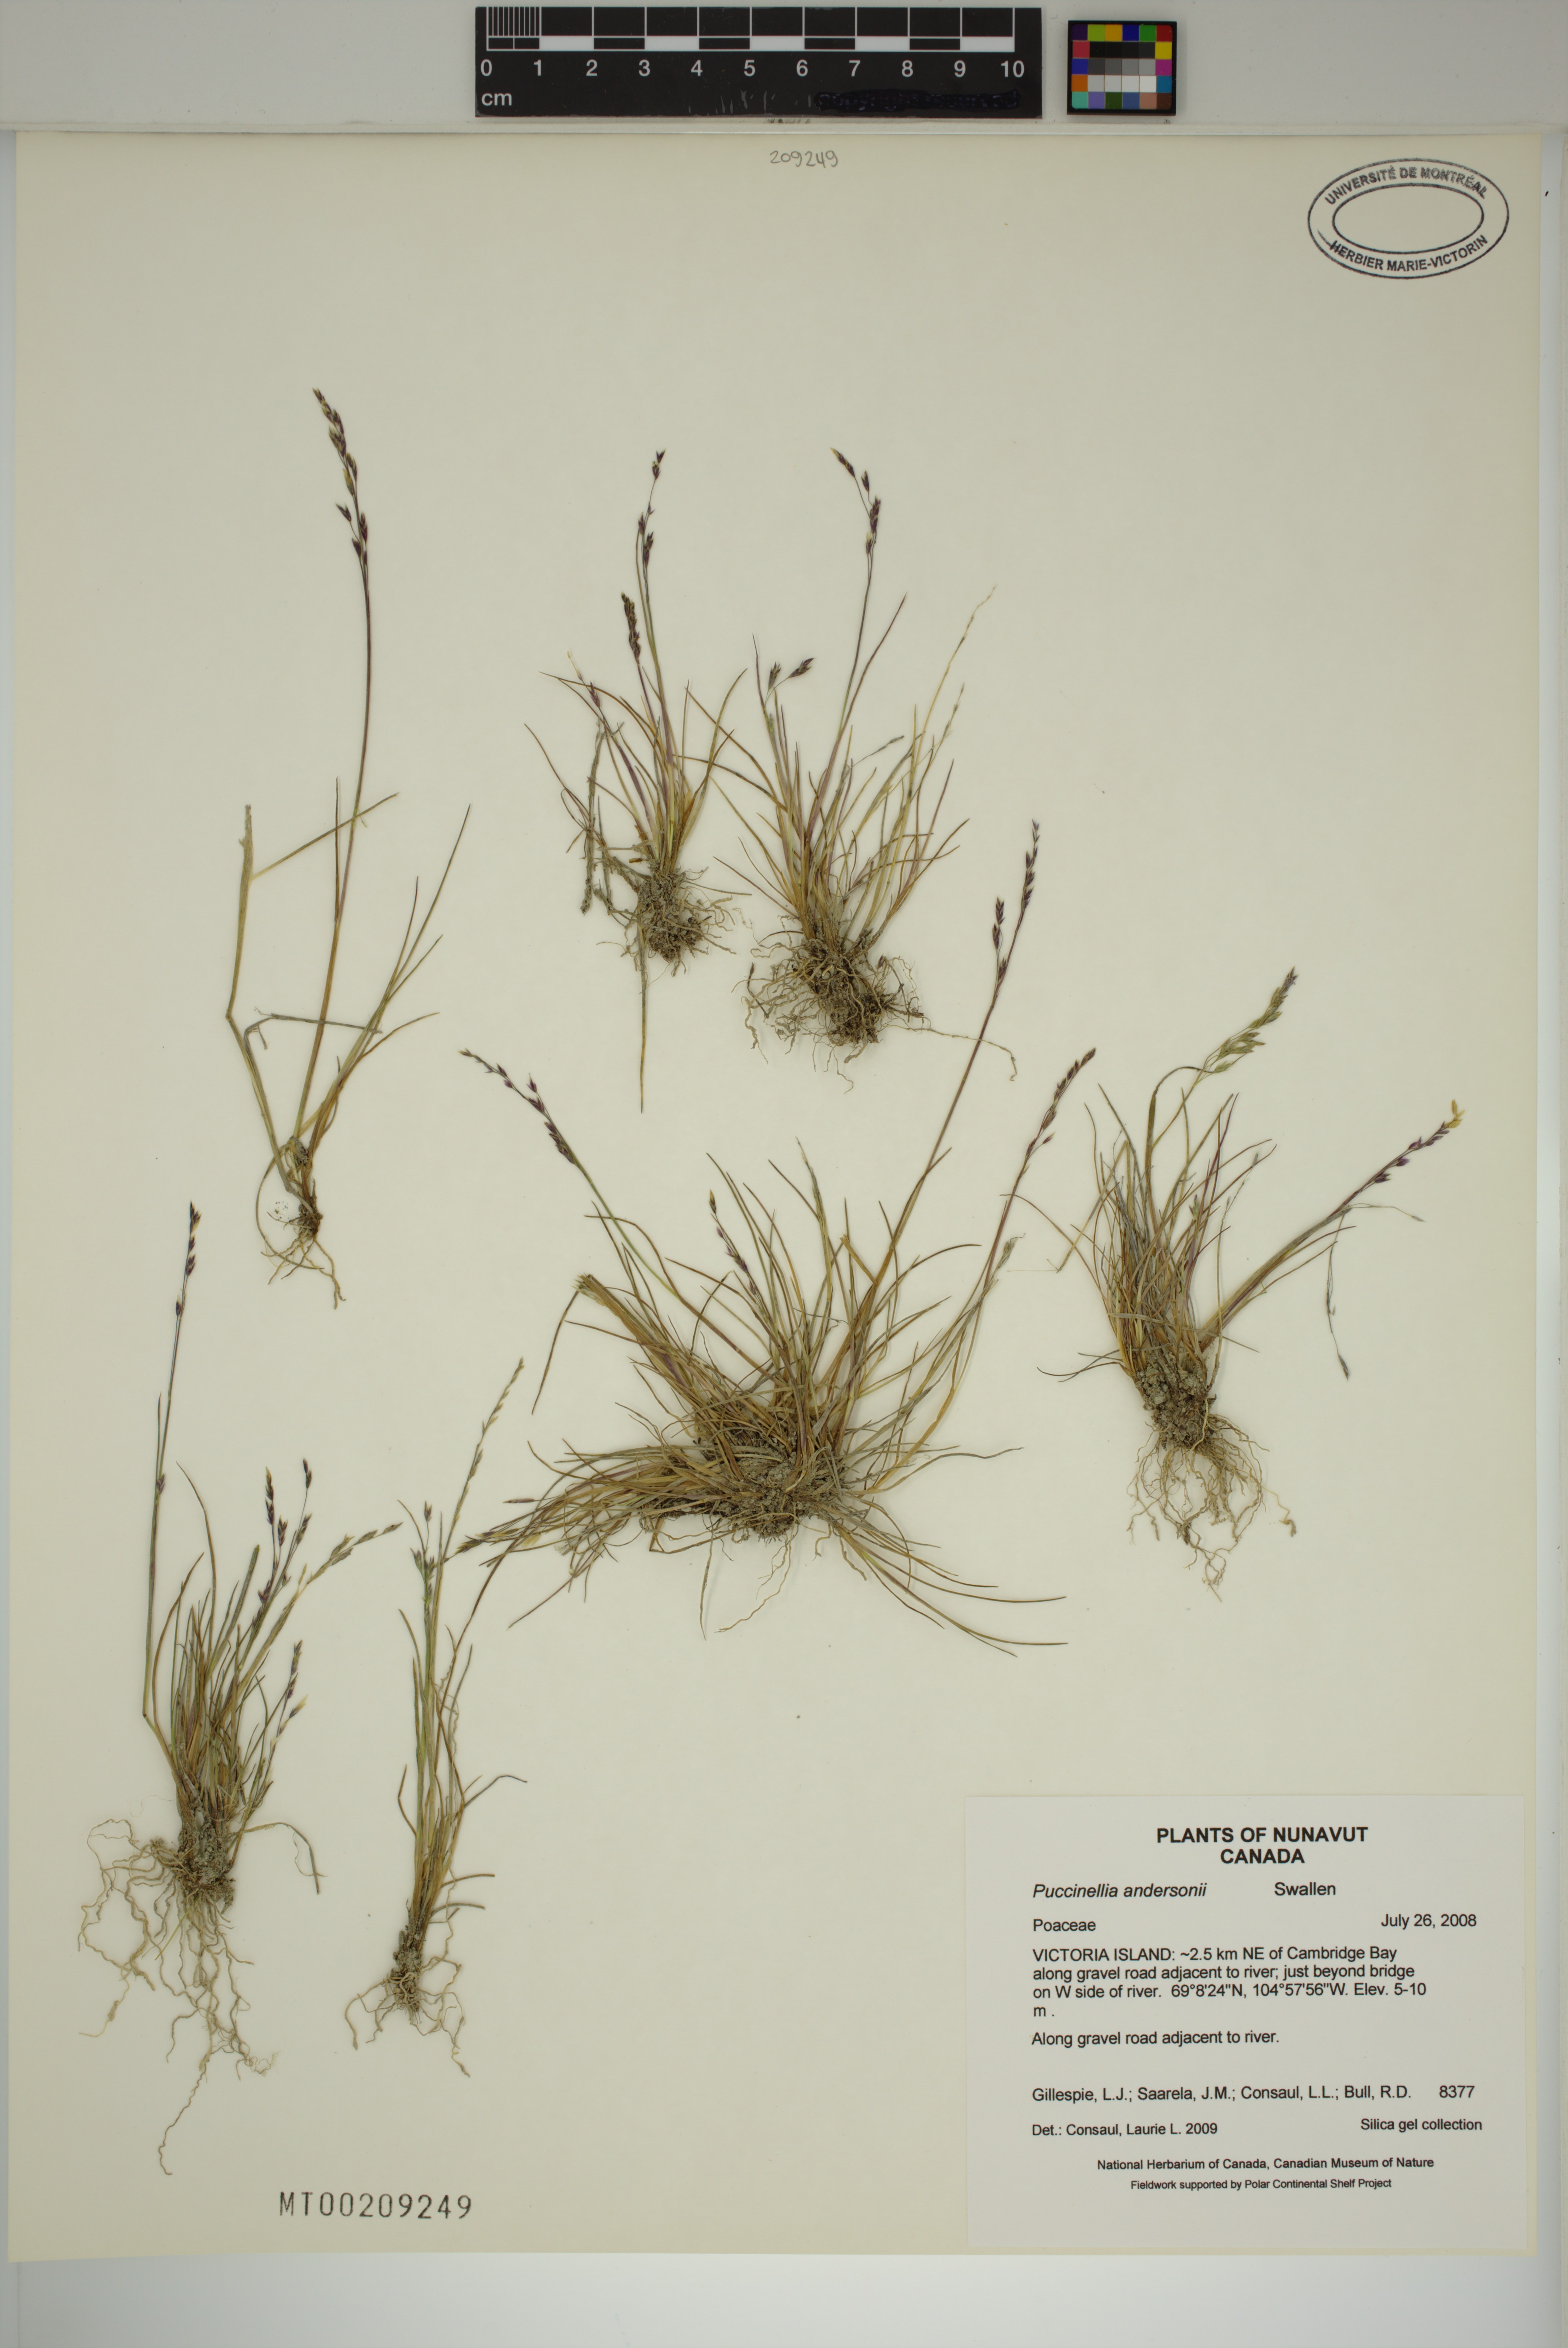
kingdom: Plantae
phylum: Tracheophyta
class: Liliopsida
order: Poales
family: Poaceae
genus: Puccinellia
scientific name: Puccinellia andersonii
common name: Anderson's alkali grass
